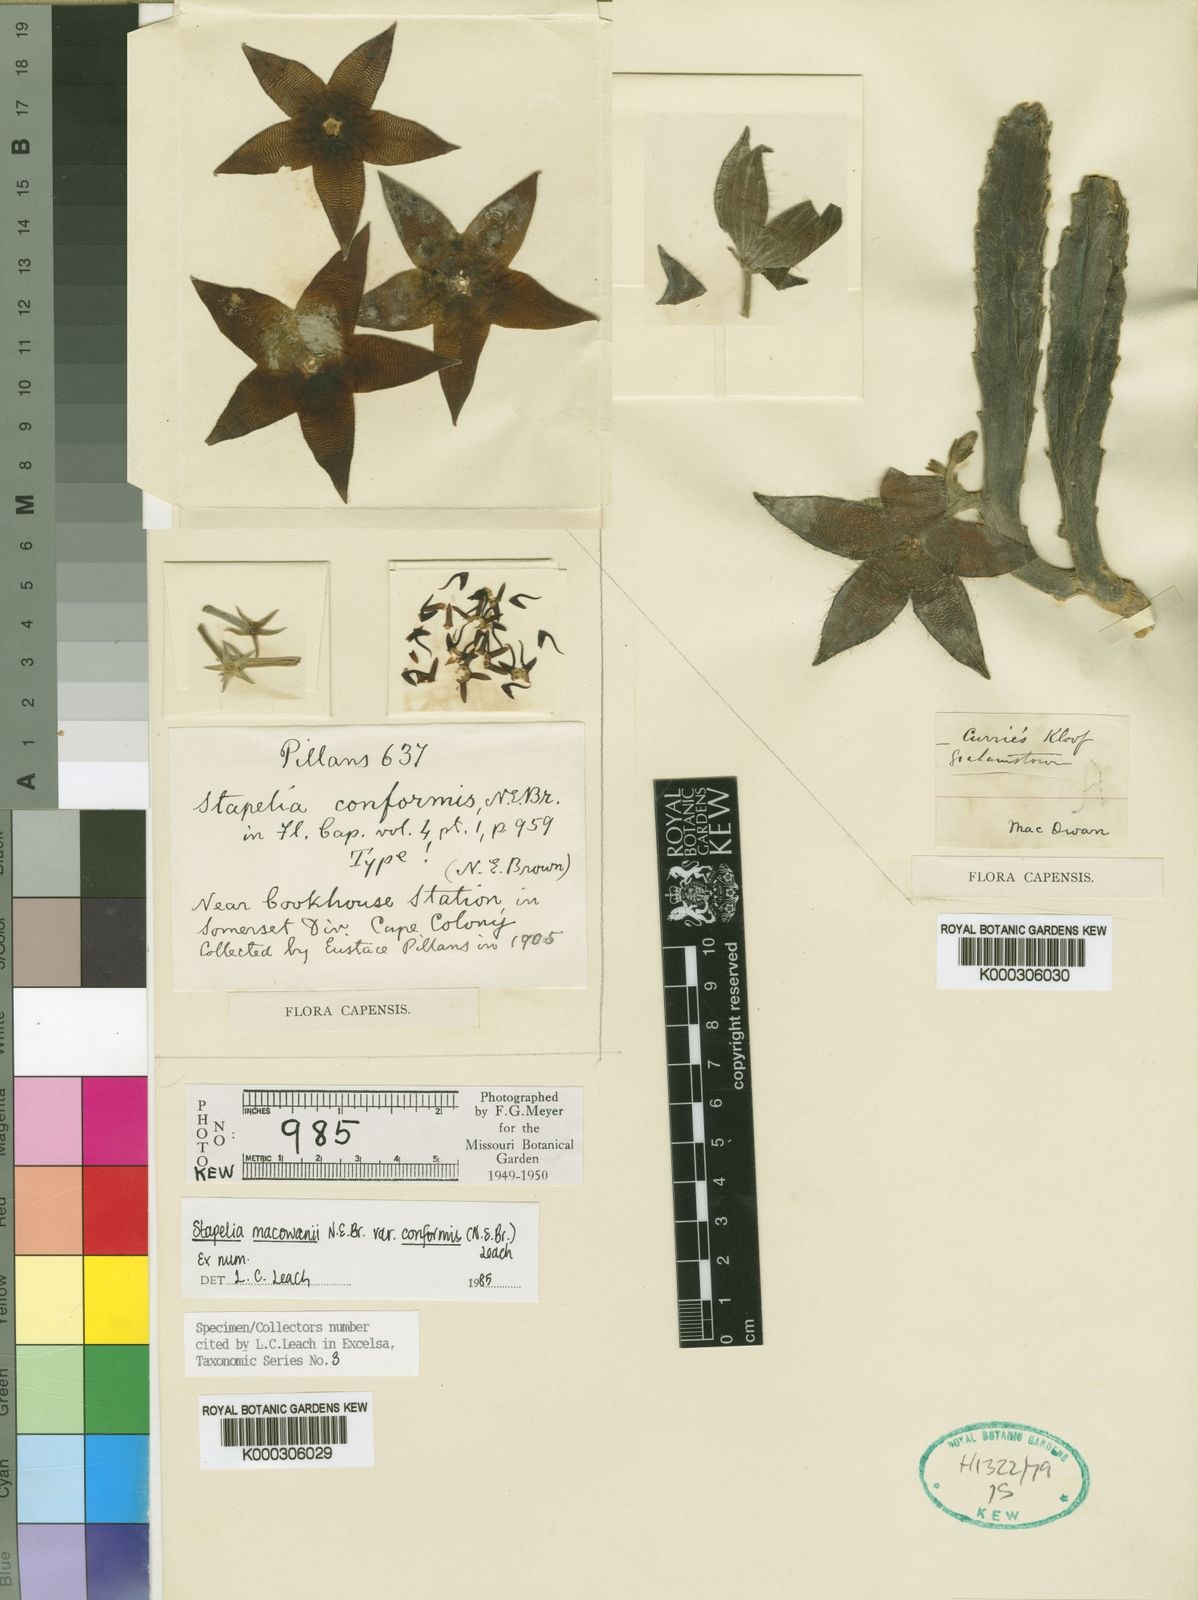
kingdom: Plantae
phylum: Tracheophyta
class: Magnoliopsida
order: Gentianales
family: Apocynaceae
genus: Ceropegia
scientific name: Ceropegia grandiflora
